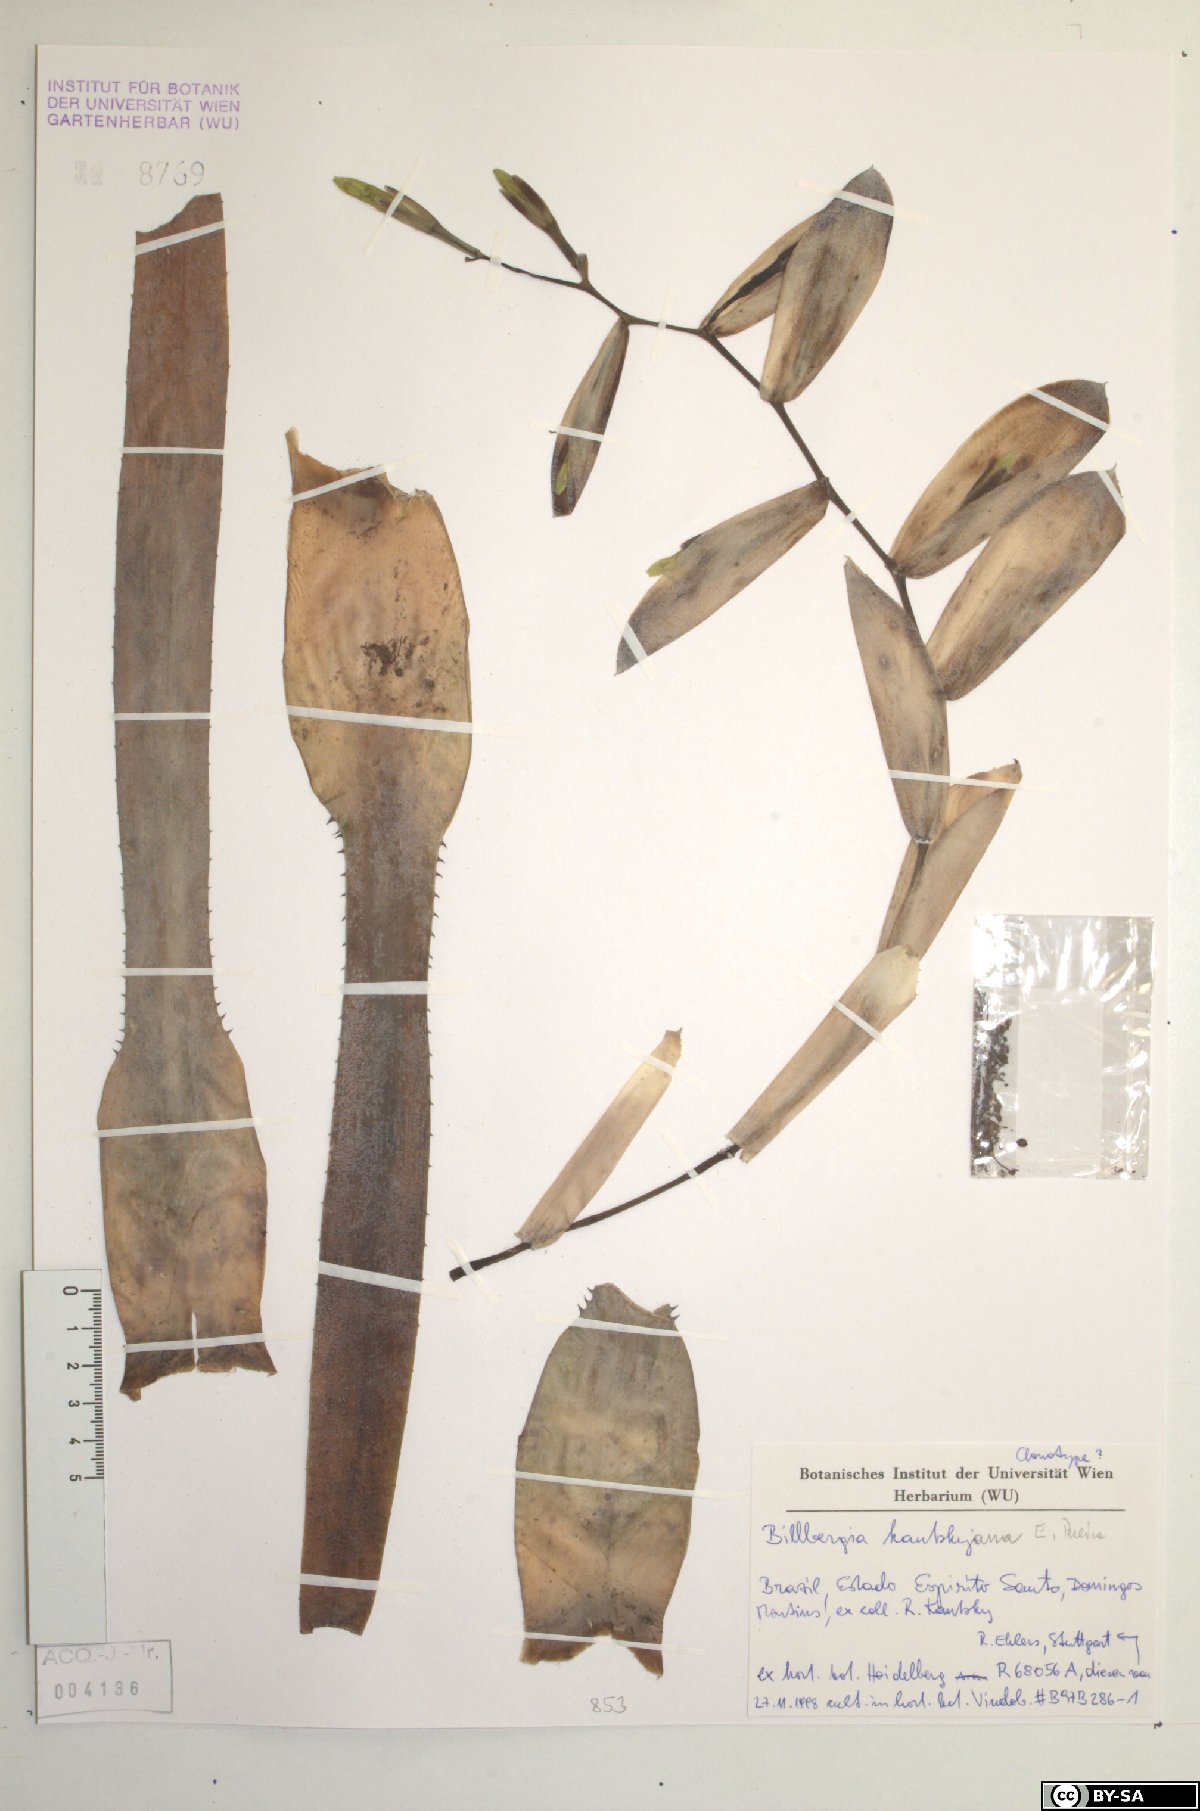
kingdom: Plantae
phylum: Tracheophyta
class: Liliopsida
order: Poales
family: Bromeliaceae
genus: Billbergia
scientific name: Billbergia kautskyana
